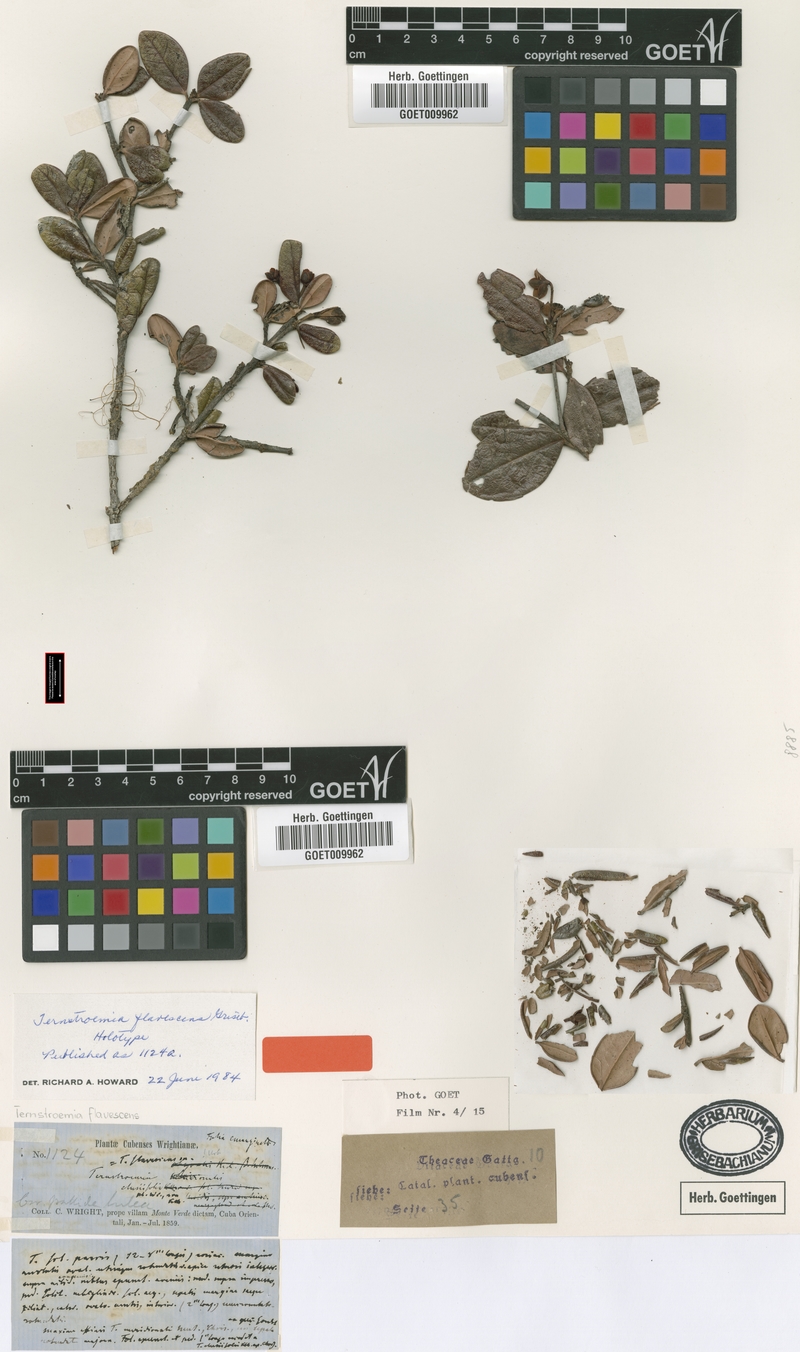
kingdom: Plantae
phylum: Tracheophyta
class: Magnoliopsida
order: Ericales
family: Pentaphylacaceae
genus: Ternstroemia
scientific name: Ternstroemia flavescens
